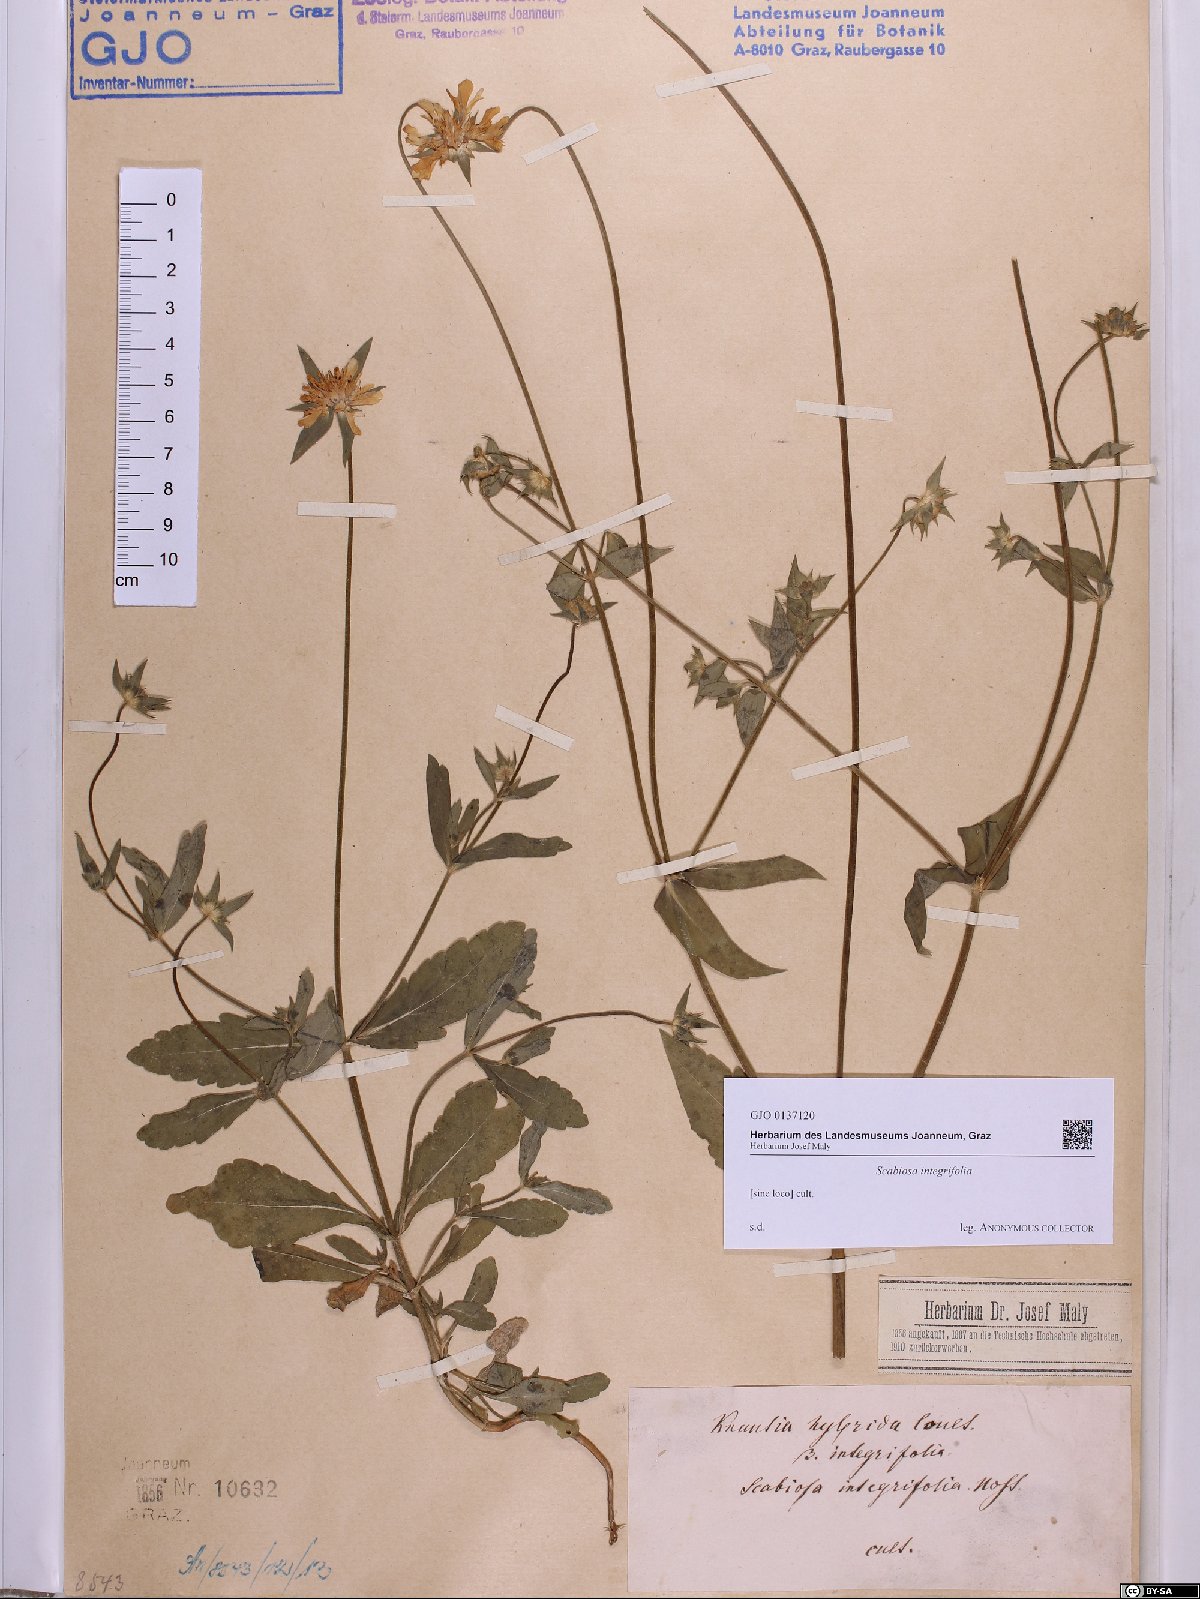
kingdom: Plantae
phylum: Tracheophyta
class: Magnoliopsida
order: Dipsacales
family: Caprifoliaceae
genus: Knautia
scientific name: Knautia integrifolia
